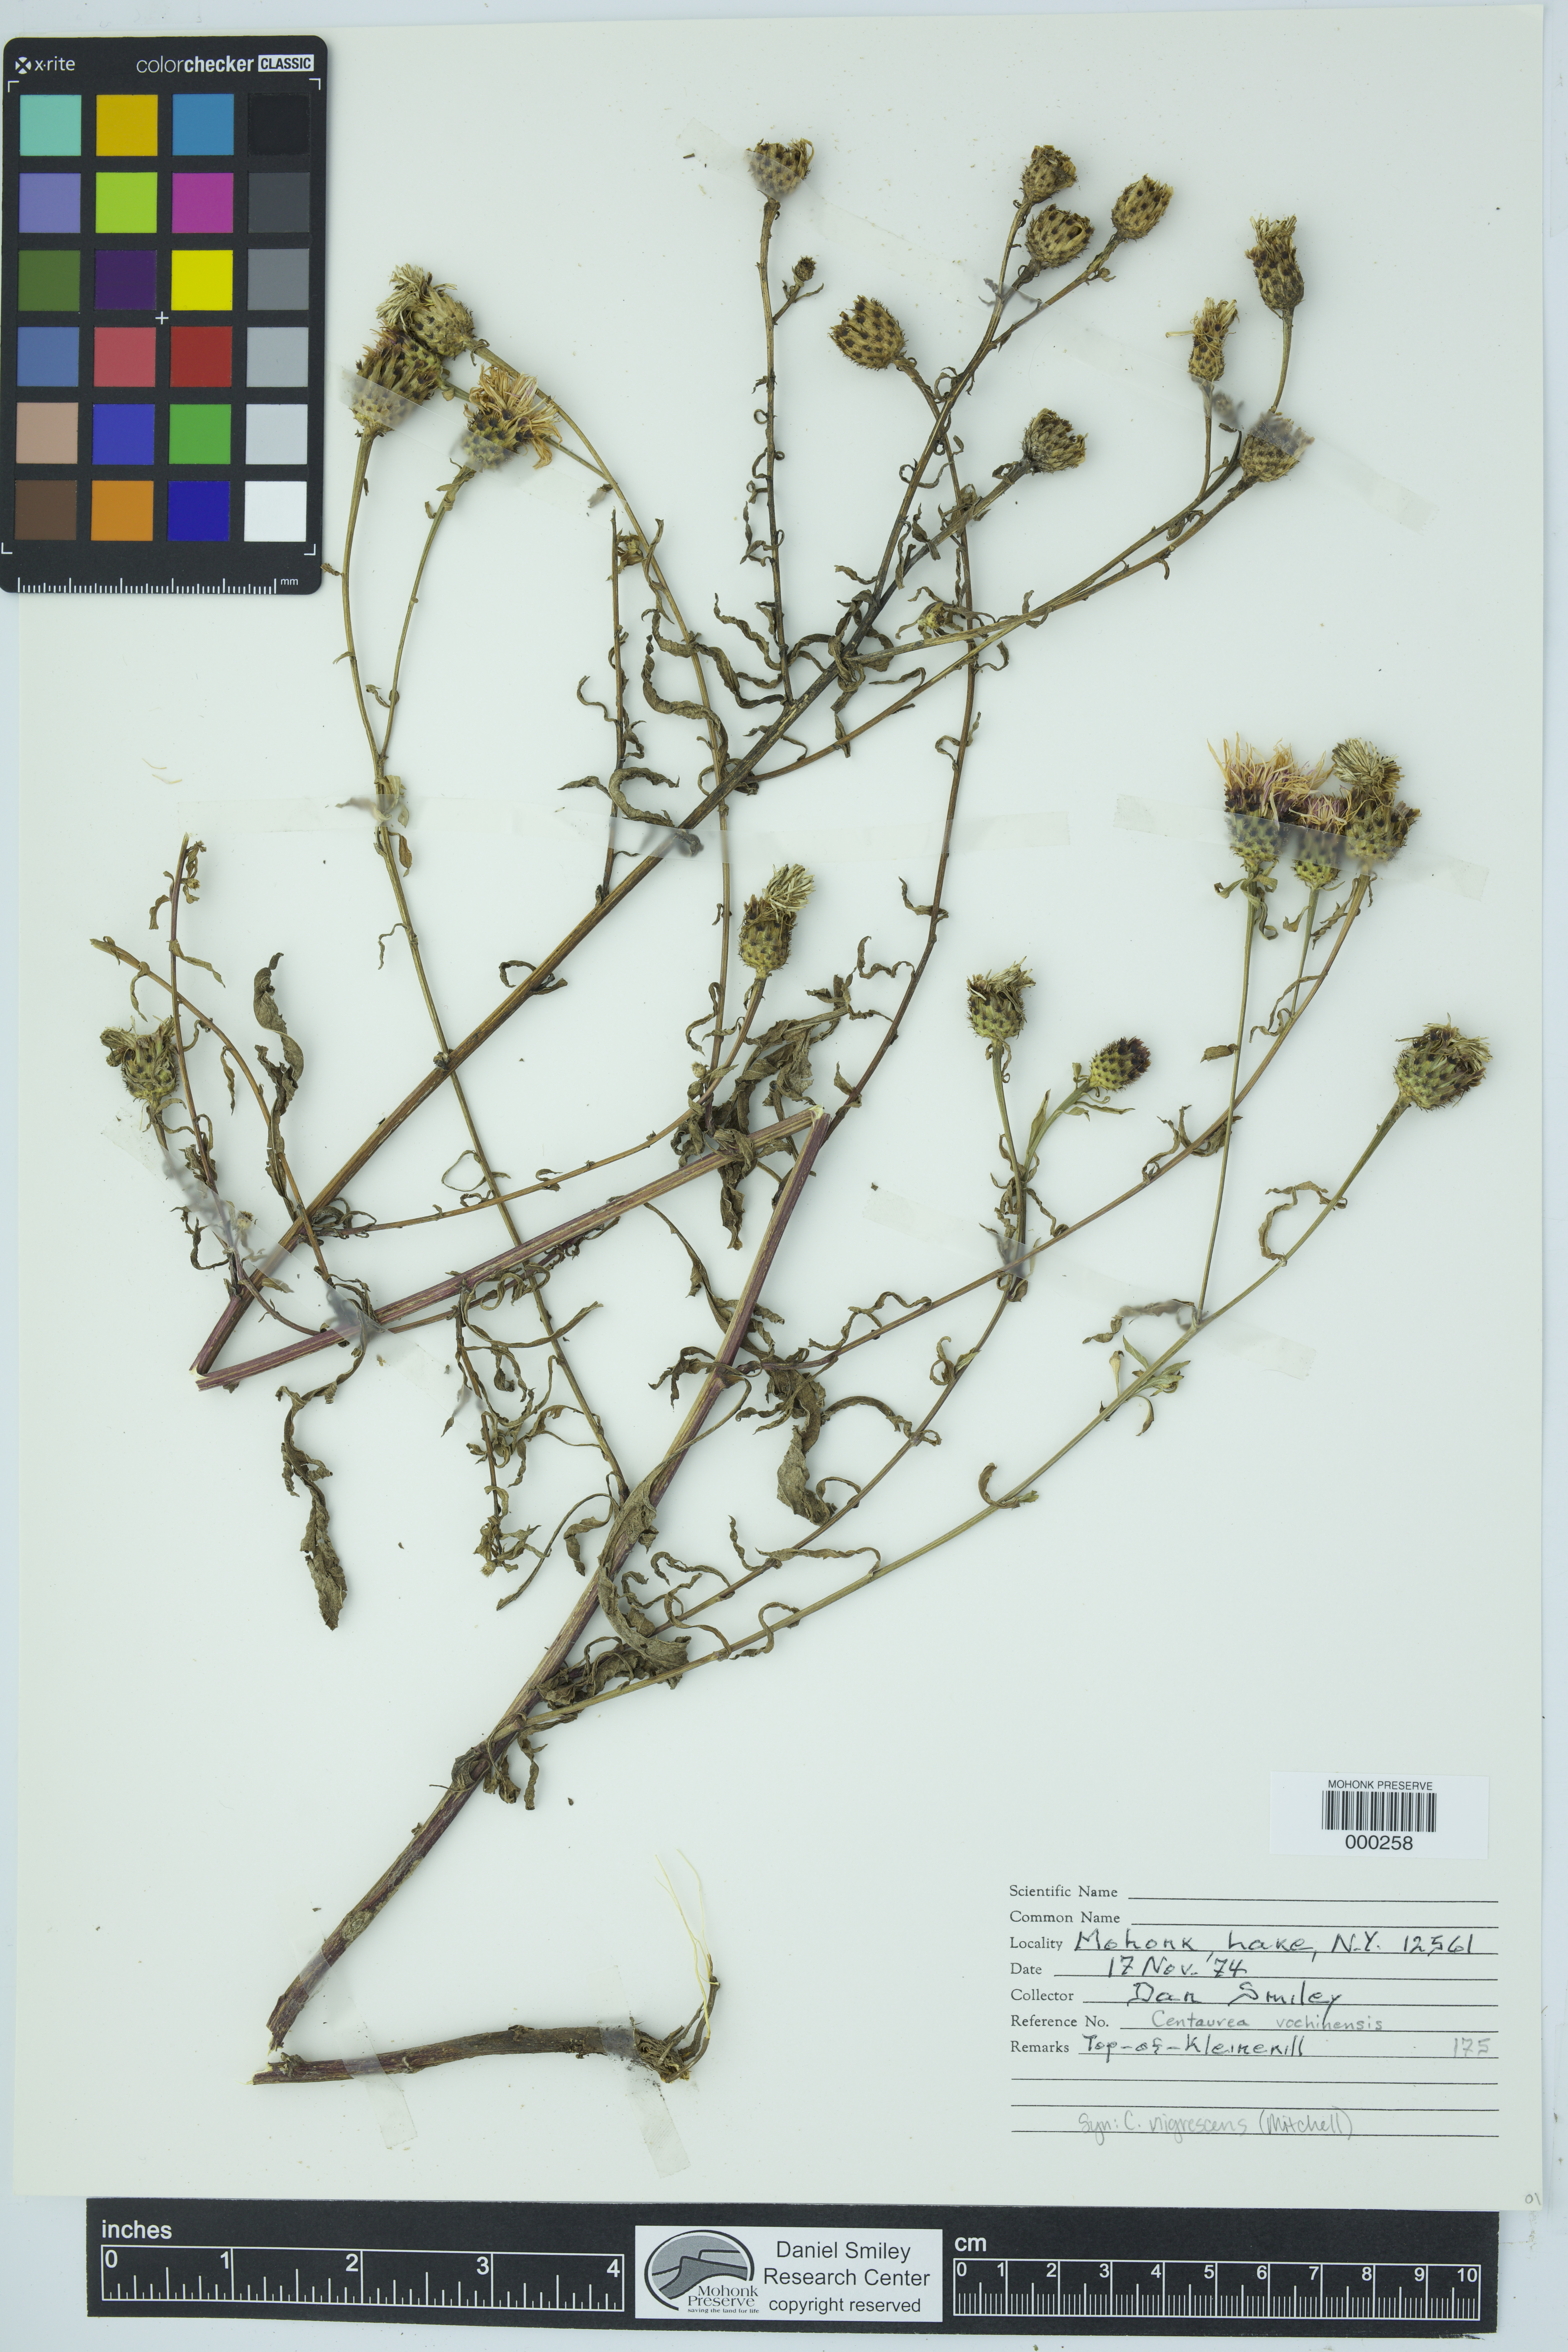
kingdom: Plantae
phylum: Tracheophyta
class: Magnoliopsida
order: Asterales
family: Asteraceae
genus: Centaurea
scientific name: Centaurea nigrescens
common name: Tyrol knapweed
